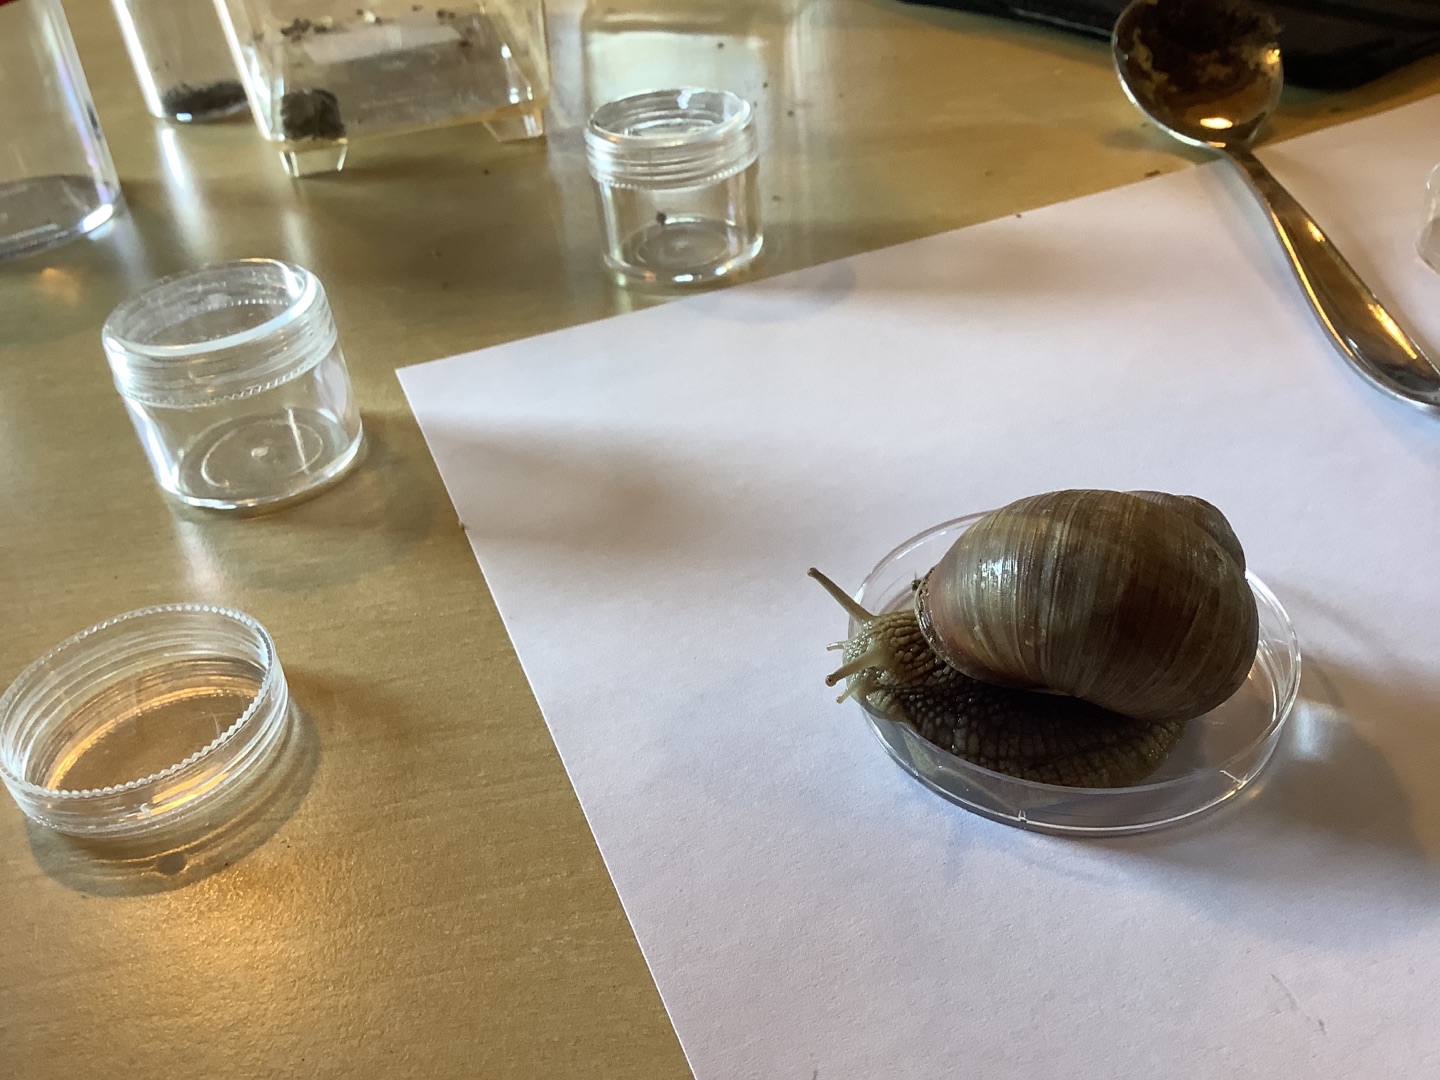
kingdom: Animalia
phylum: Mollusca
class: Gastropoda
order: Stylommatophora
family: Helicidae
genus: Helix
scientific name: Helix pomatia
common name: Vinbjergsnegl
